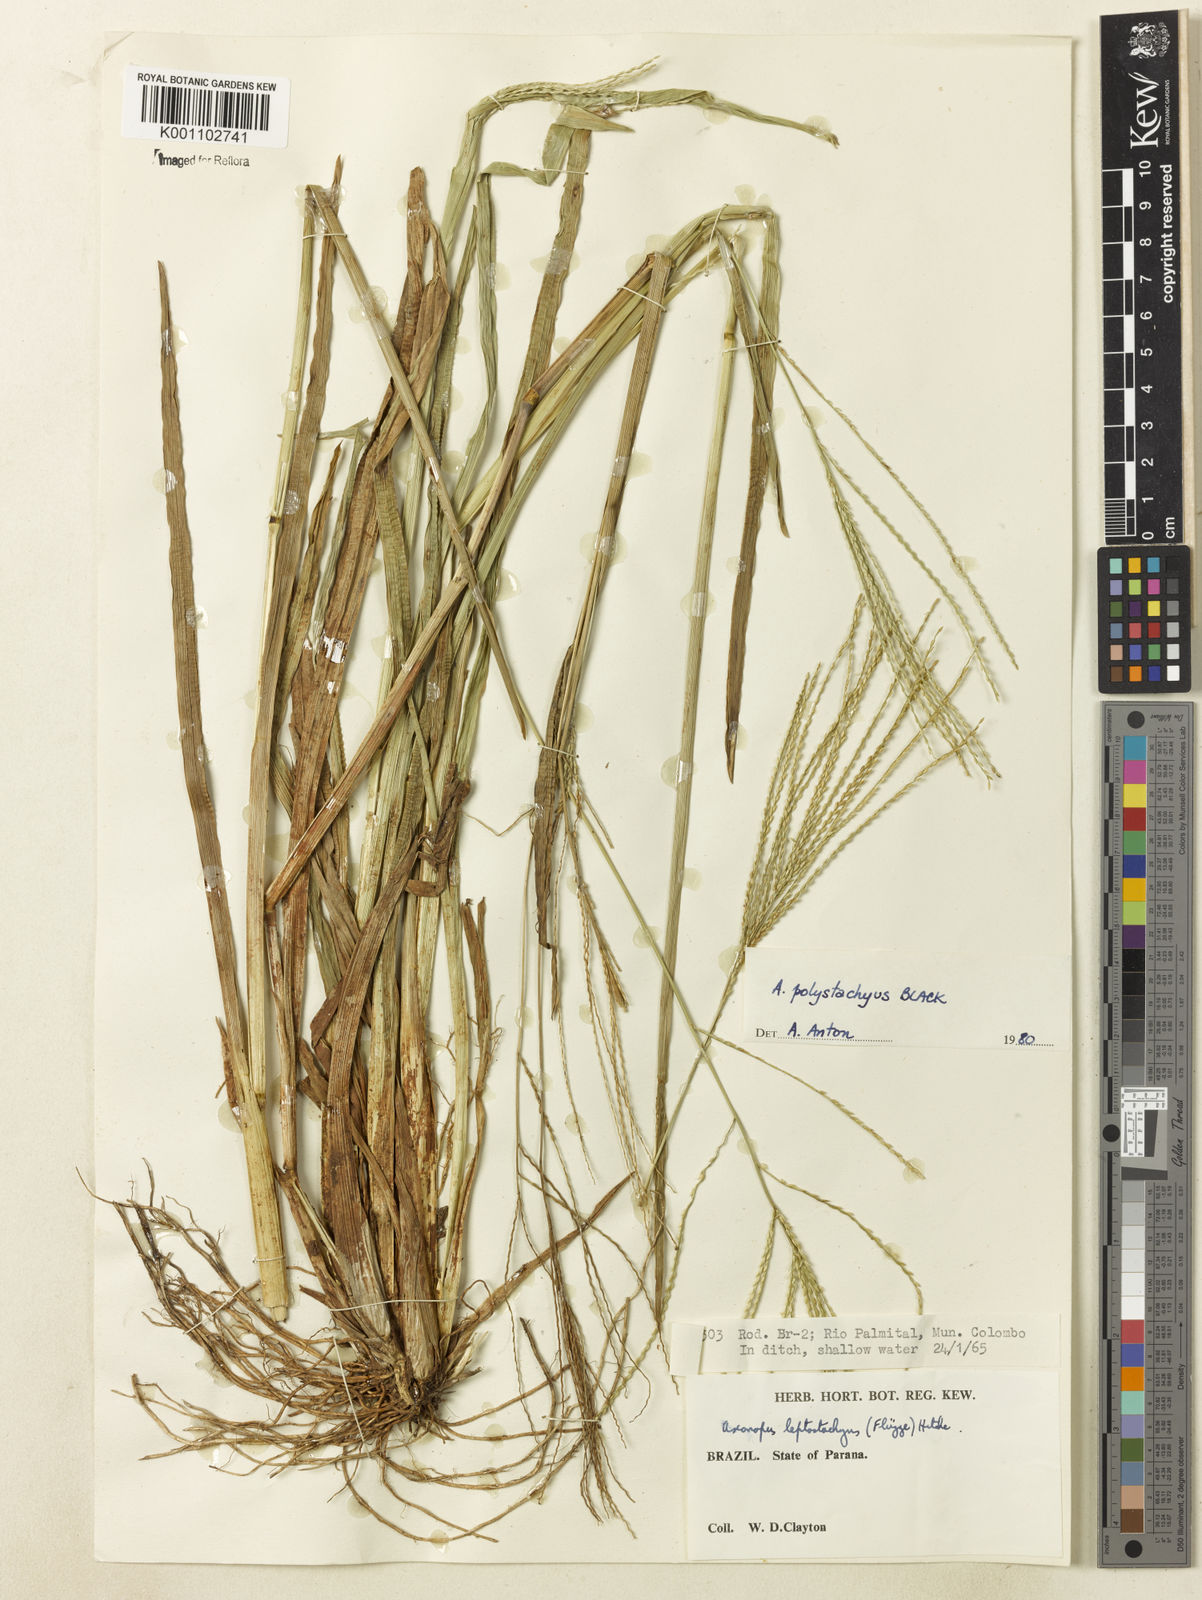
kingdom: Plantae
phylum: Tracheophyta
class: Liliopsida
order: Poales
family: Poaceae
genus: Axonopus
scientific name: Axonopus polystachyus
